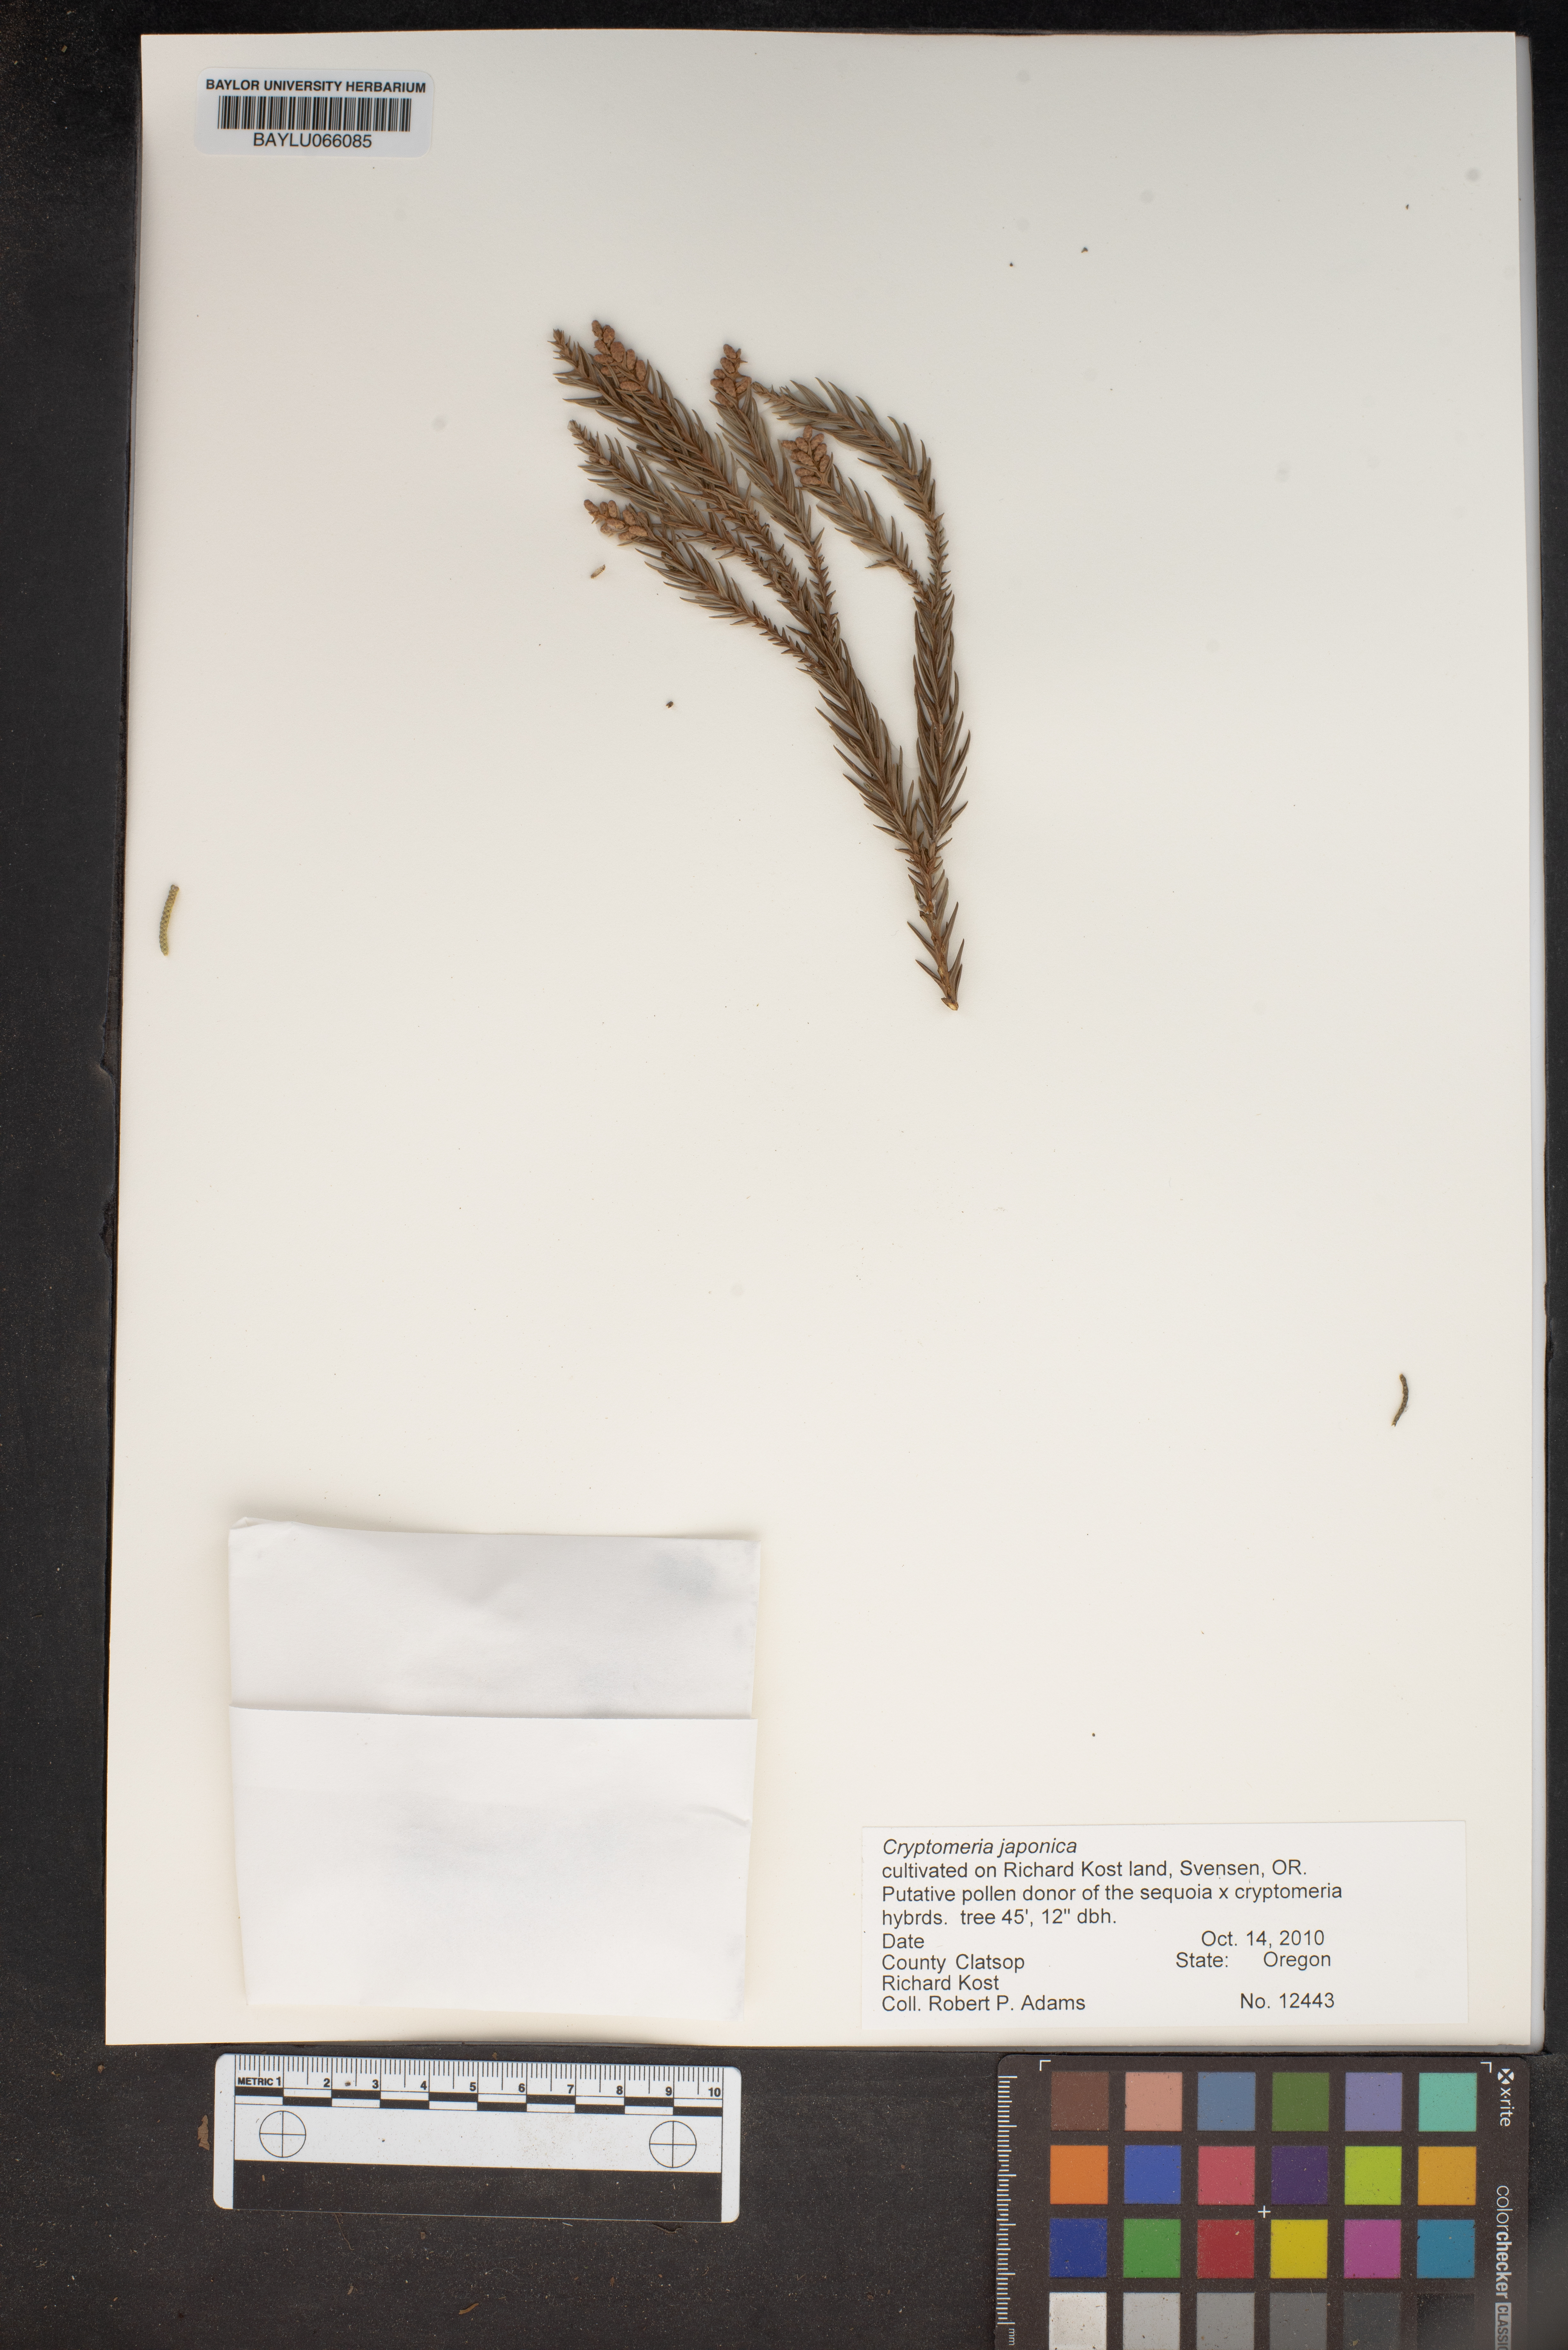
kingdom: Plantae
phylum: Tracheophyta
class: Pinopsida
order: Pinales
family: Cupressaceae
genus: Cryptomeria
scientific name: Cryptomeria japonica
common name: Japanese cedar
